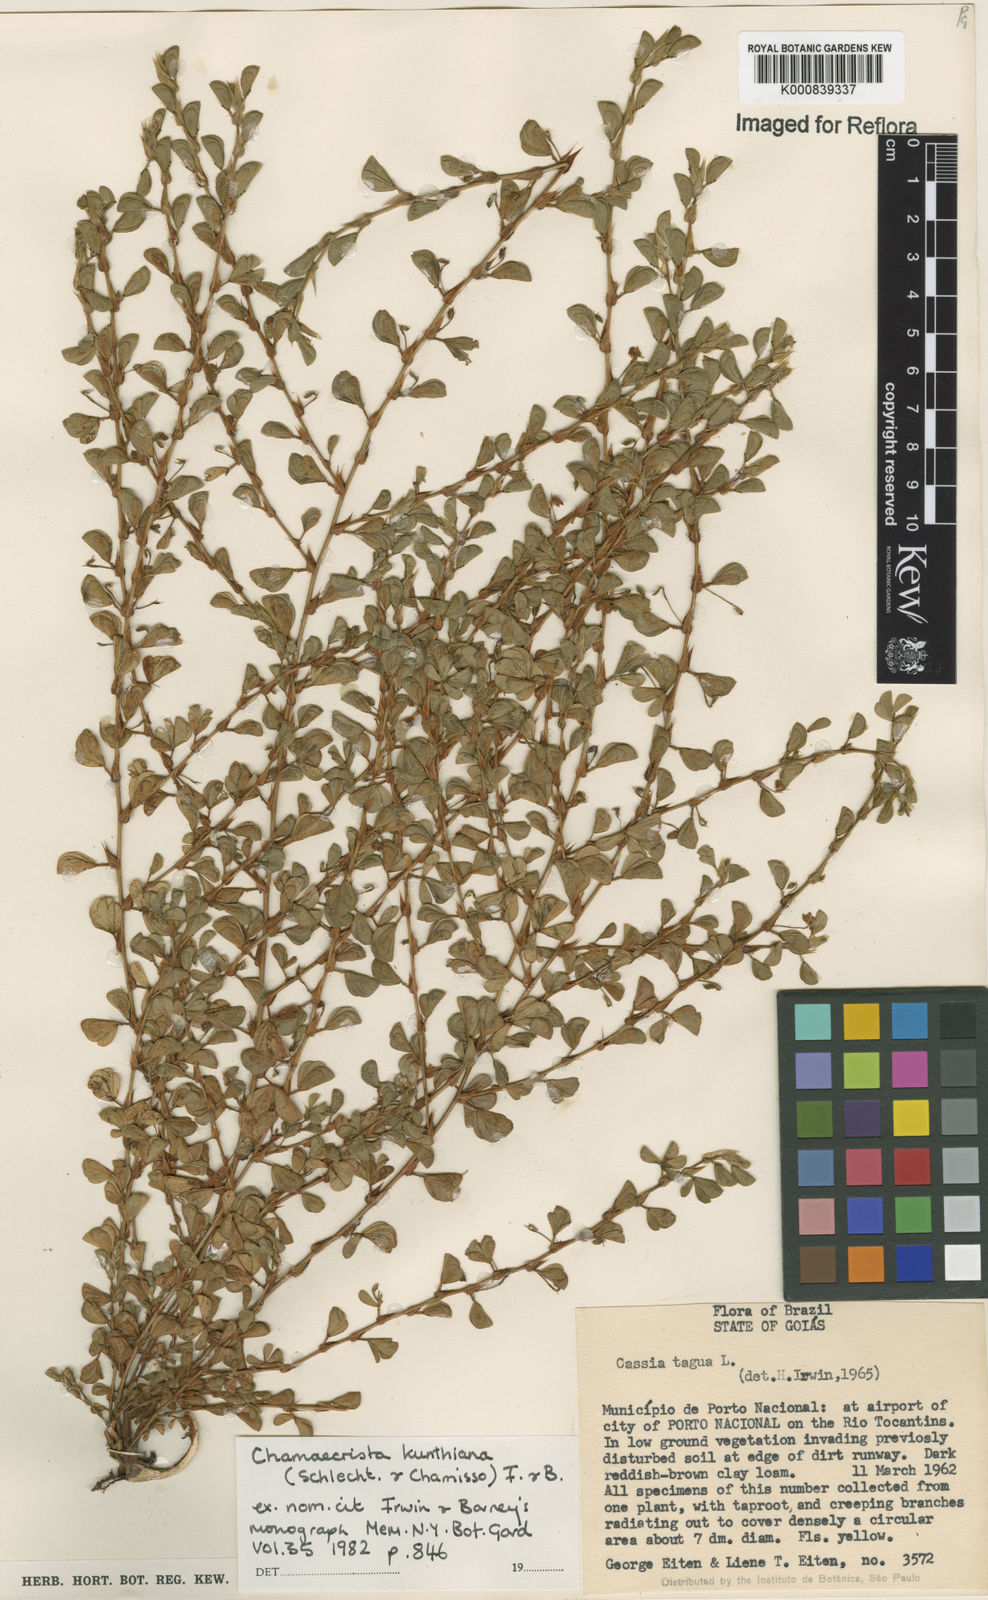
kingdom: Plantae
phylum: Tracheophyta
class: Magnoliopsida
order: Fabales
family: Fabaceae
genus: Chamaecrista
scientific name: Chamaecrista kunthiana
